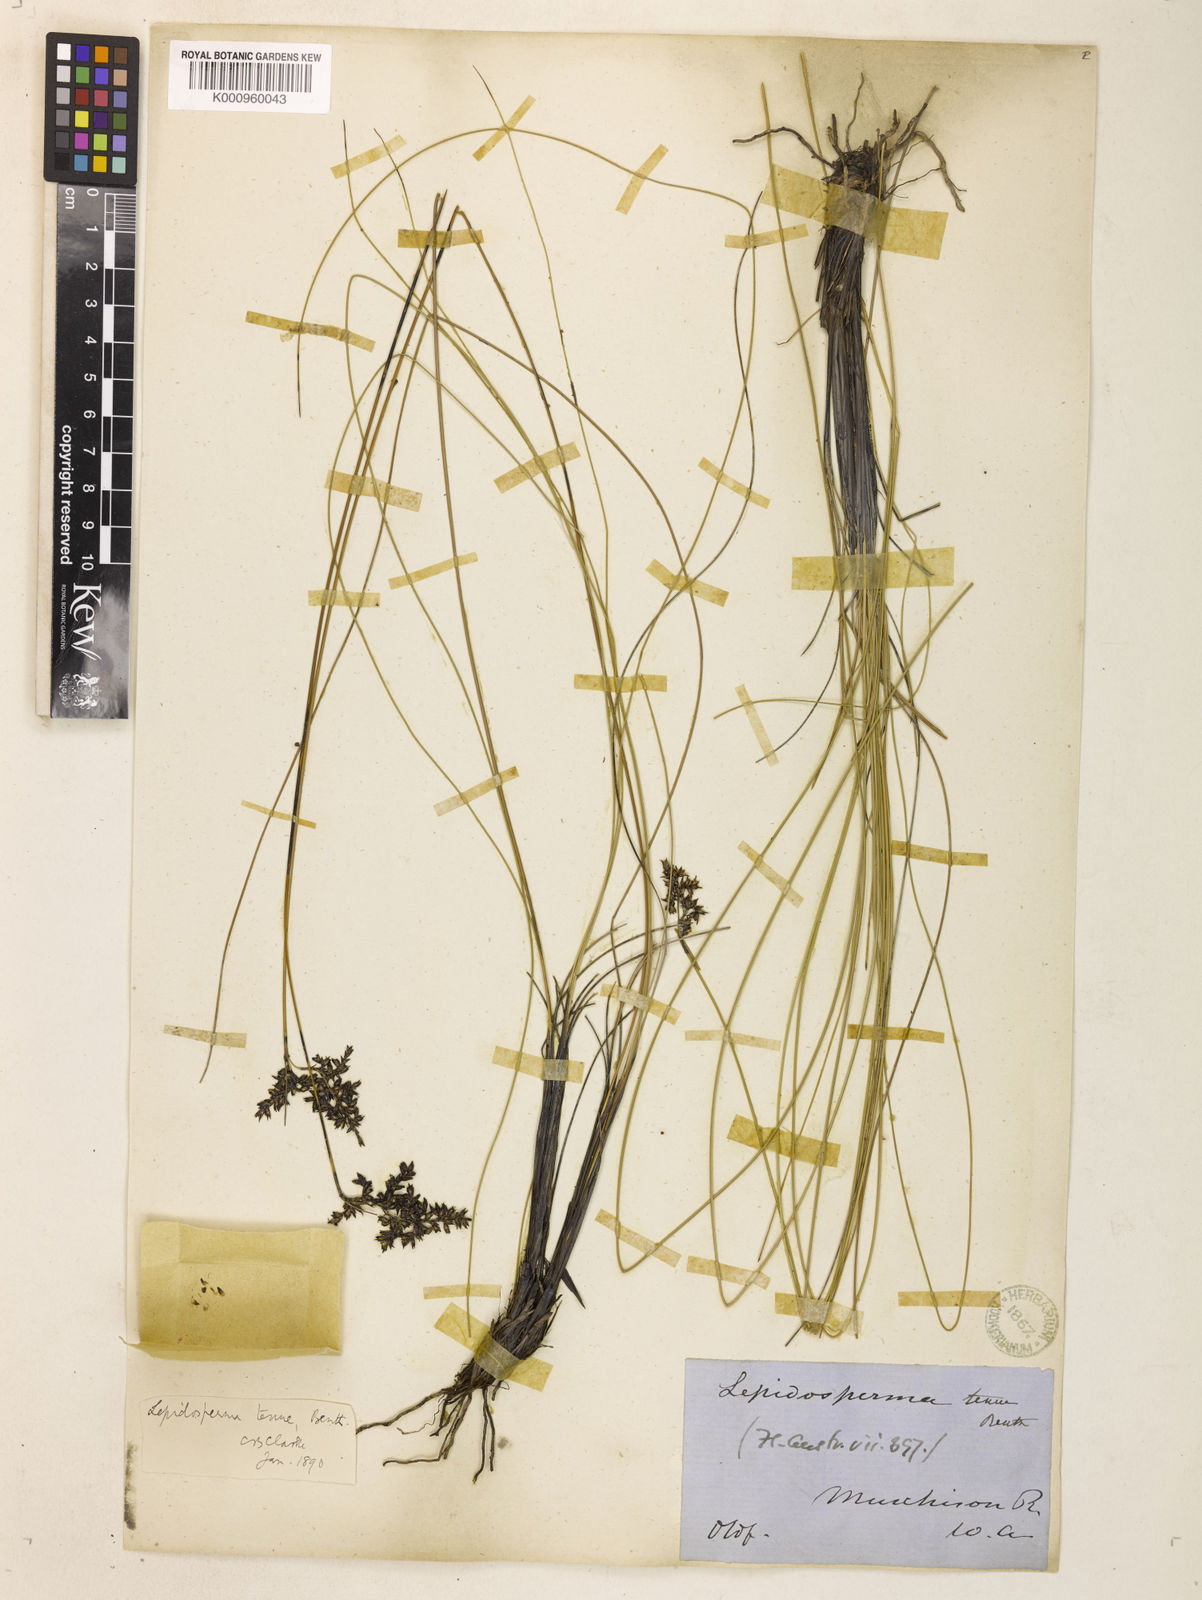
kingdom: Plantae
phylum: Tracheophyta
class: Liliopsida
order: Poales
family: Cyperaceae
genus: Lepidosperma
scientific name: Lepidosperma tenue
